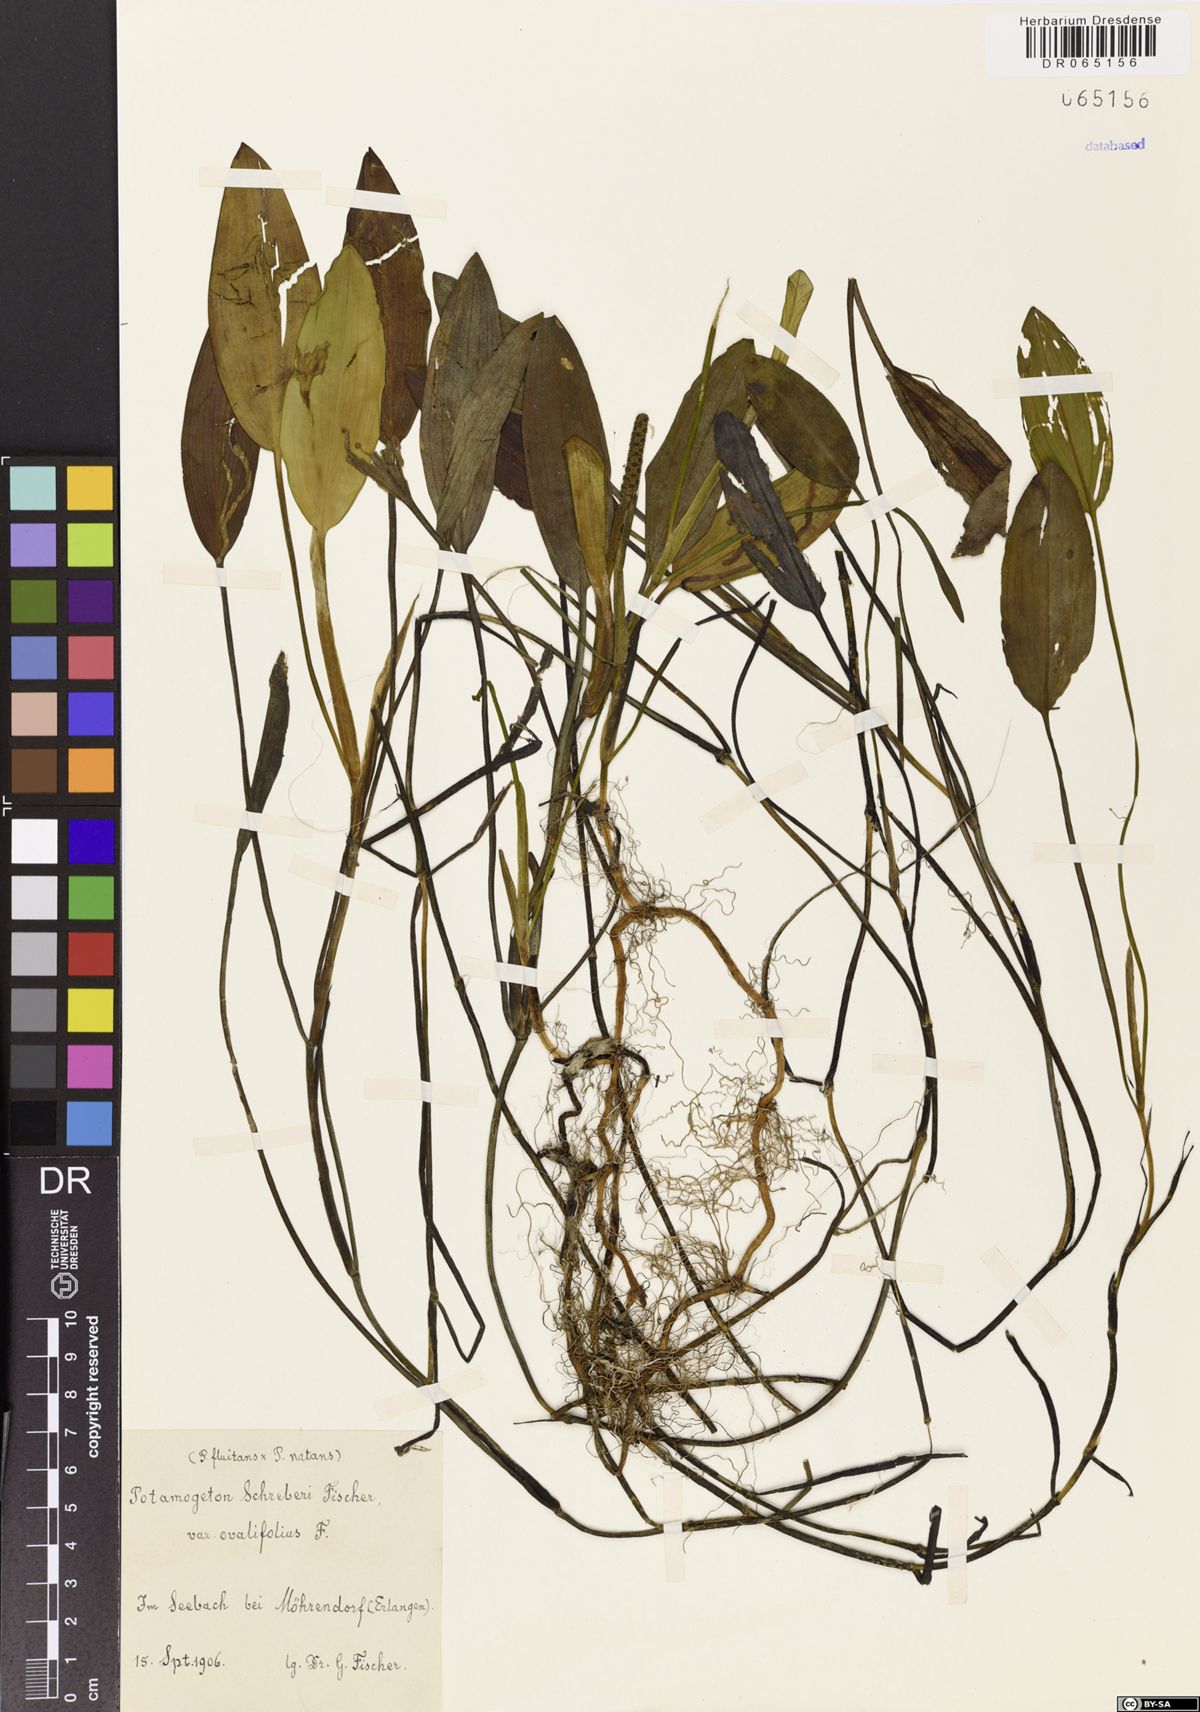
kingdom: Plantae
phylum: Tracheophyta
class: Liliopsida
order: Alismatales
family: Potamogetonaceae
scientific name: Potamogetonaceae
